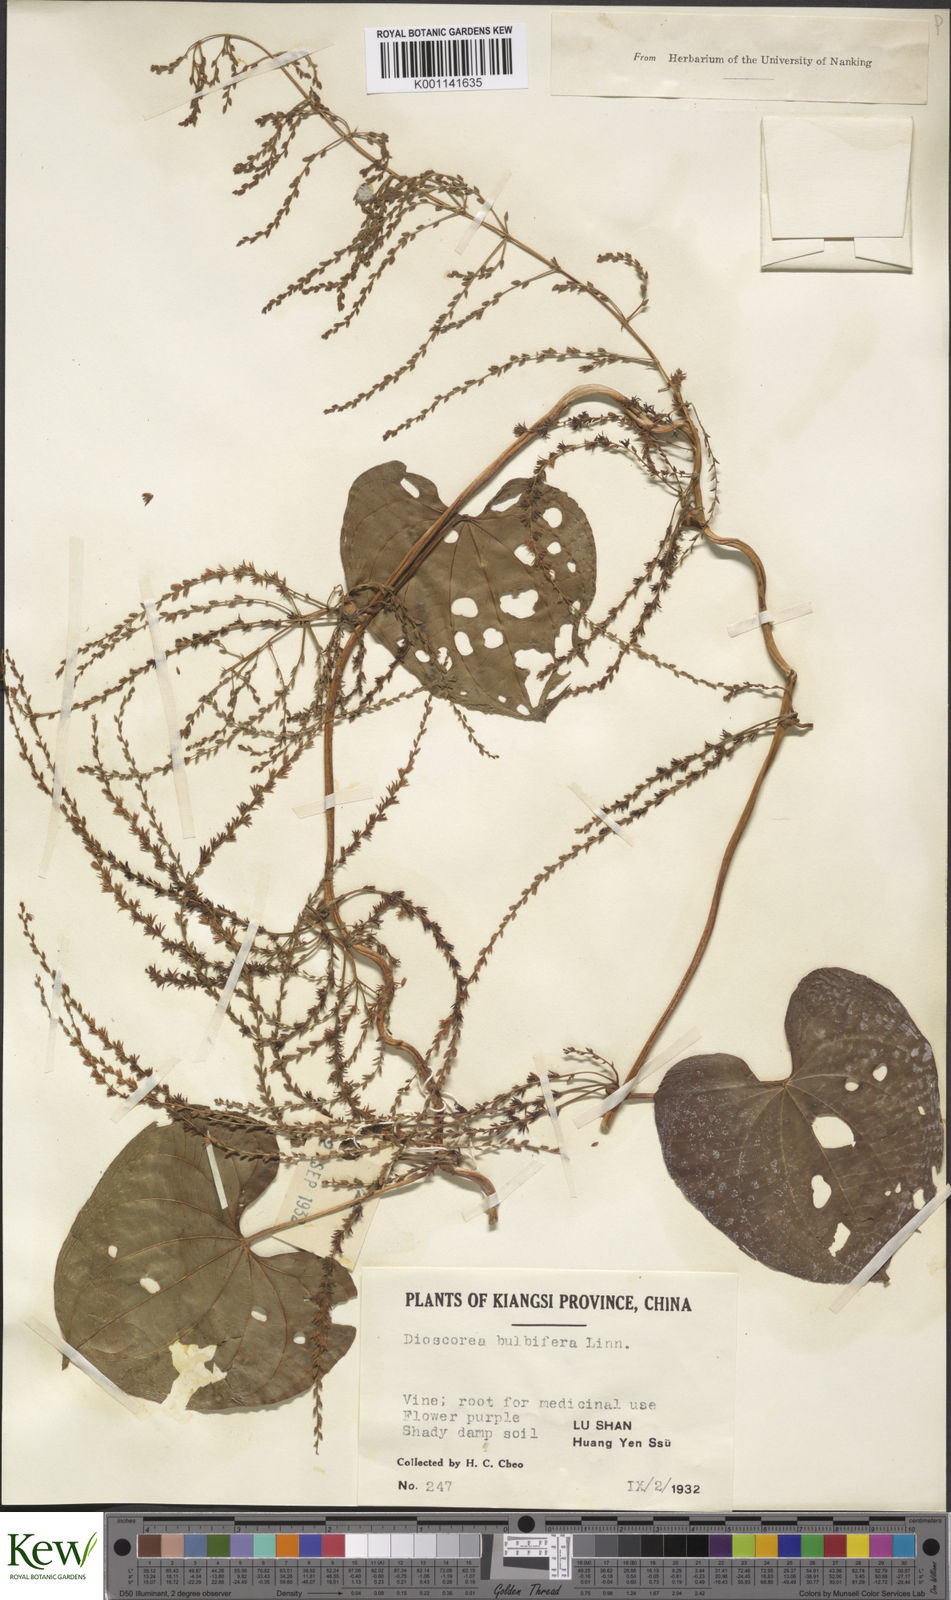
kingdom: Plantae
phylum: Tracheophyta
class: Liliopsida
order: Dioscoreales
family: Dioscoreaceae
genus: Dioscorea
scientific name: Dioscorea bulbifera
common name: Air yam
